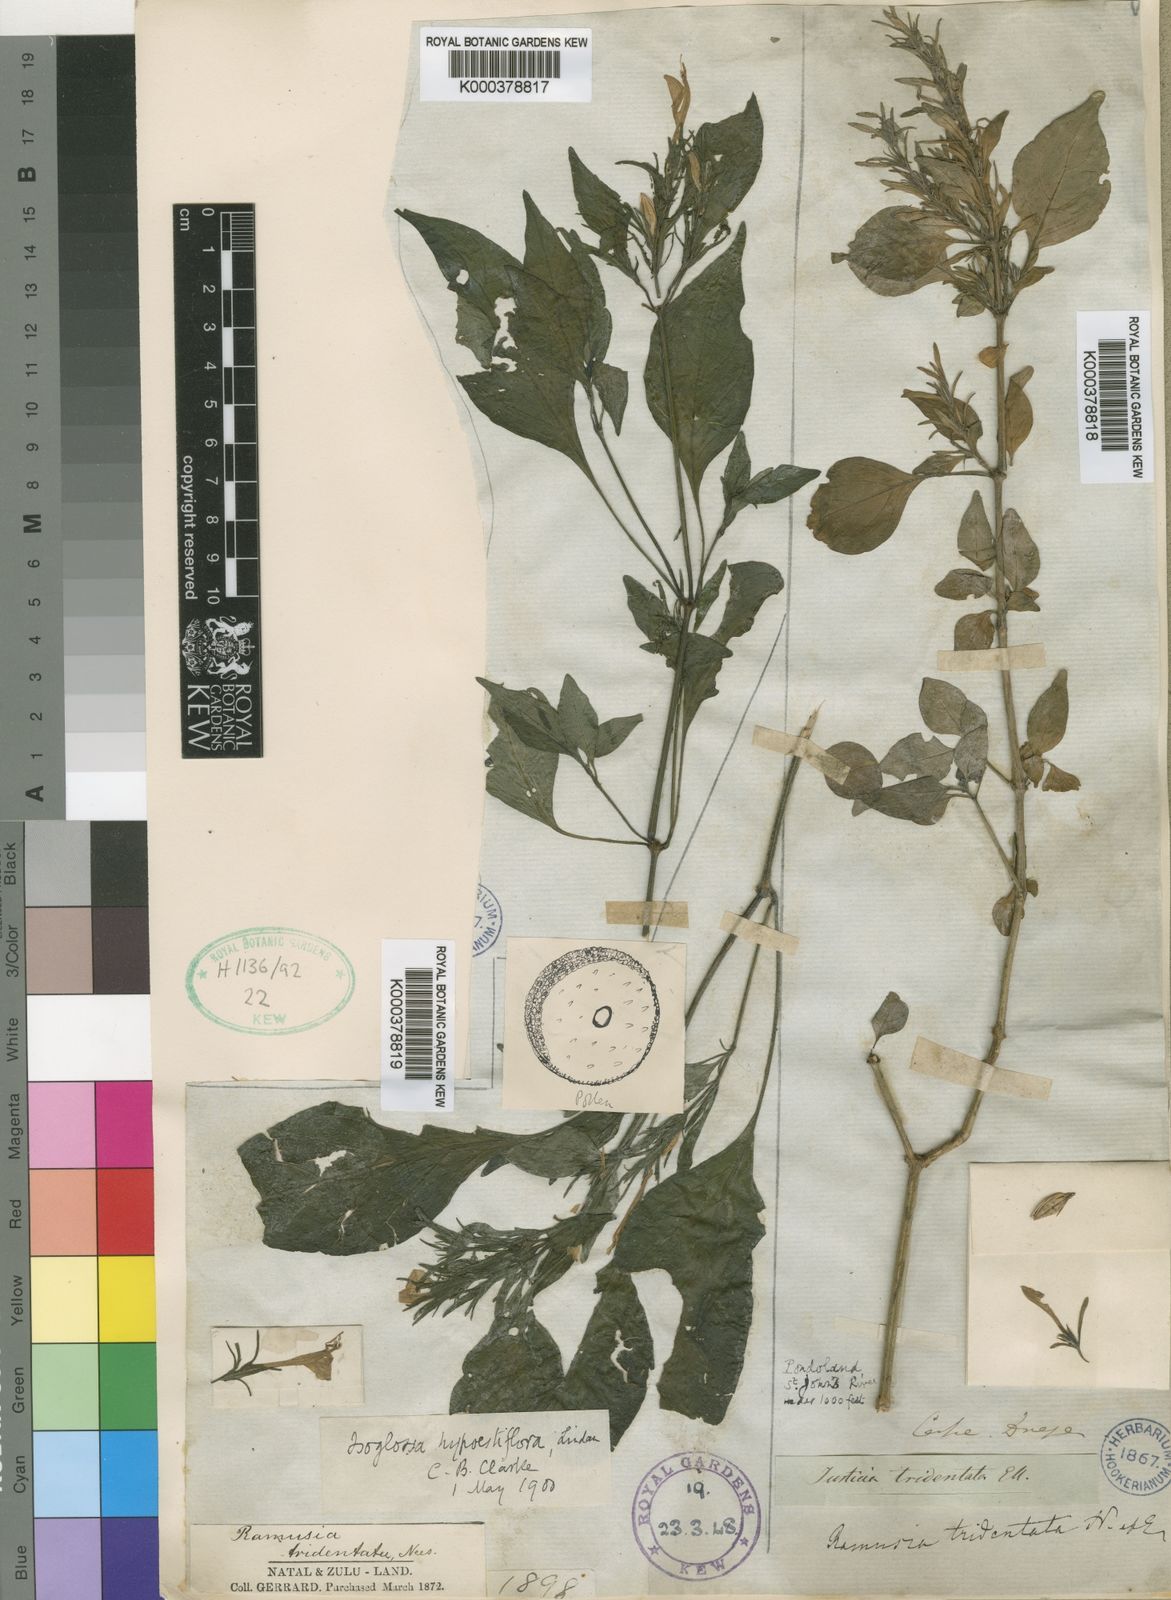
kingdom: Plantae
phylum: Tracheophyta
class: Magnoliopsida
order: Lamiales
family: Acanthaceae
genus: Isoglossa
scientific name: Isoglossa hypoestiflora
